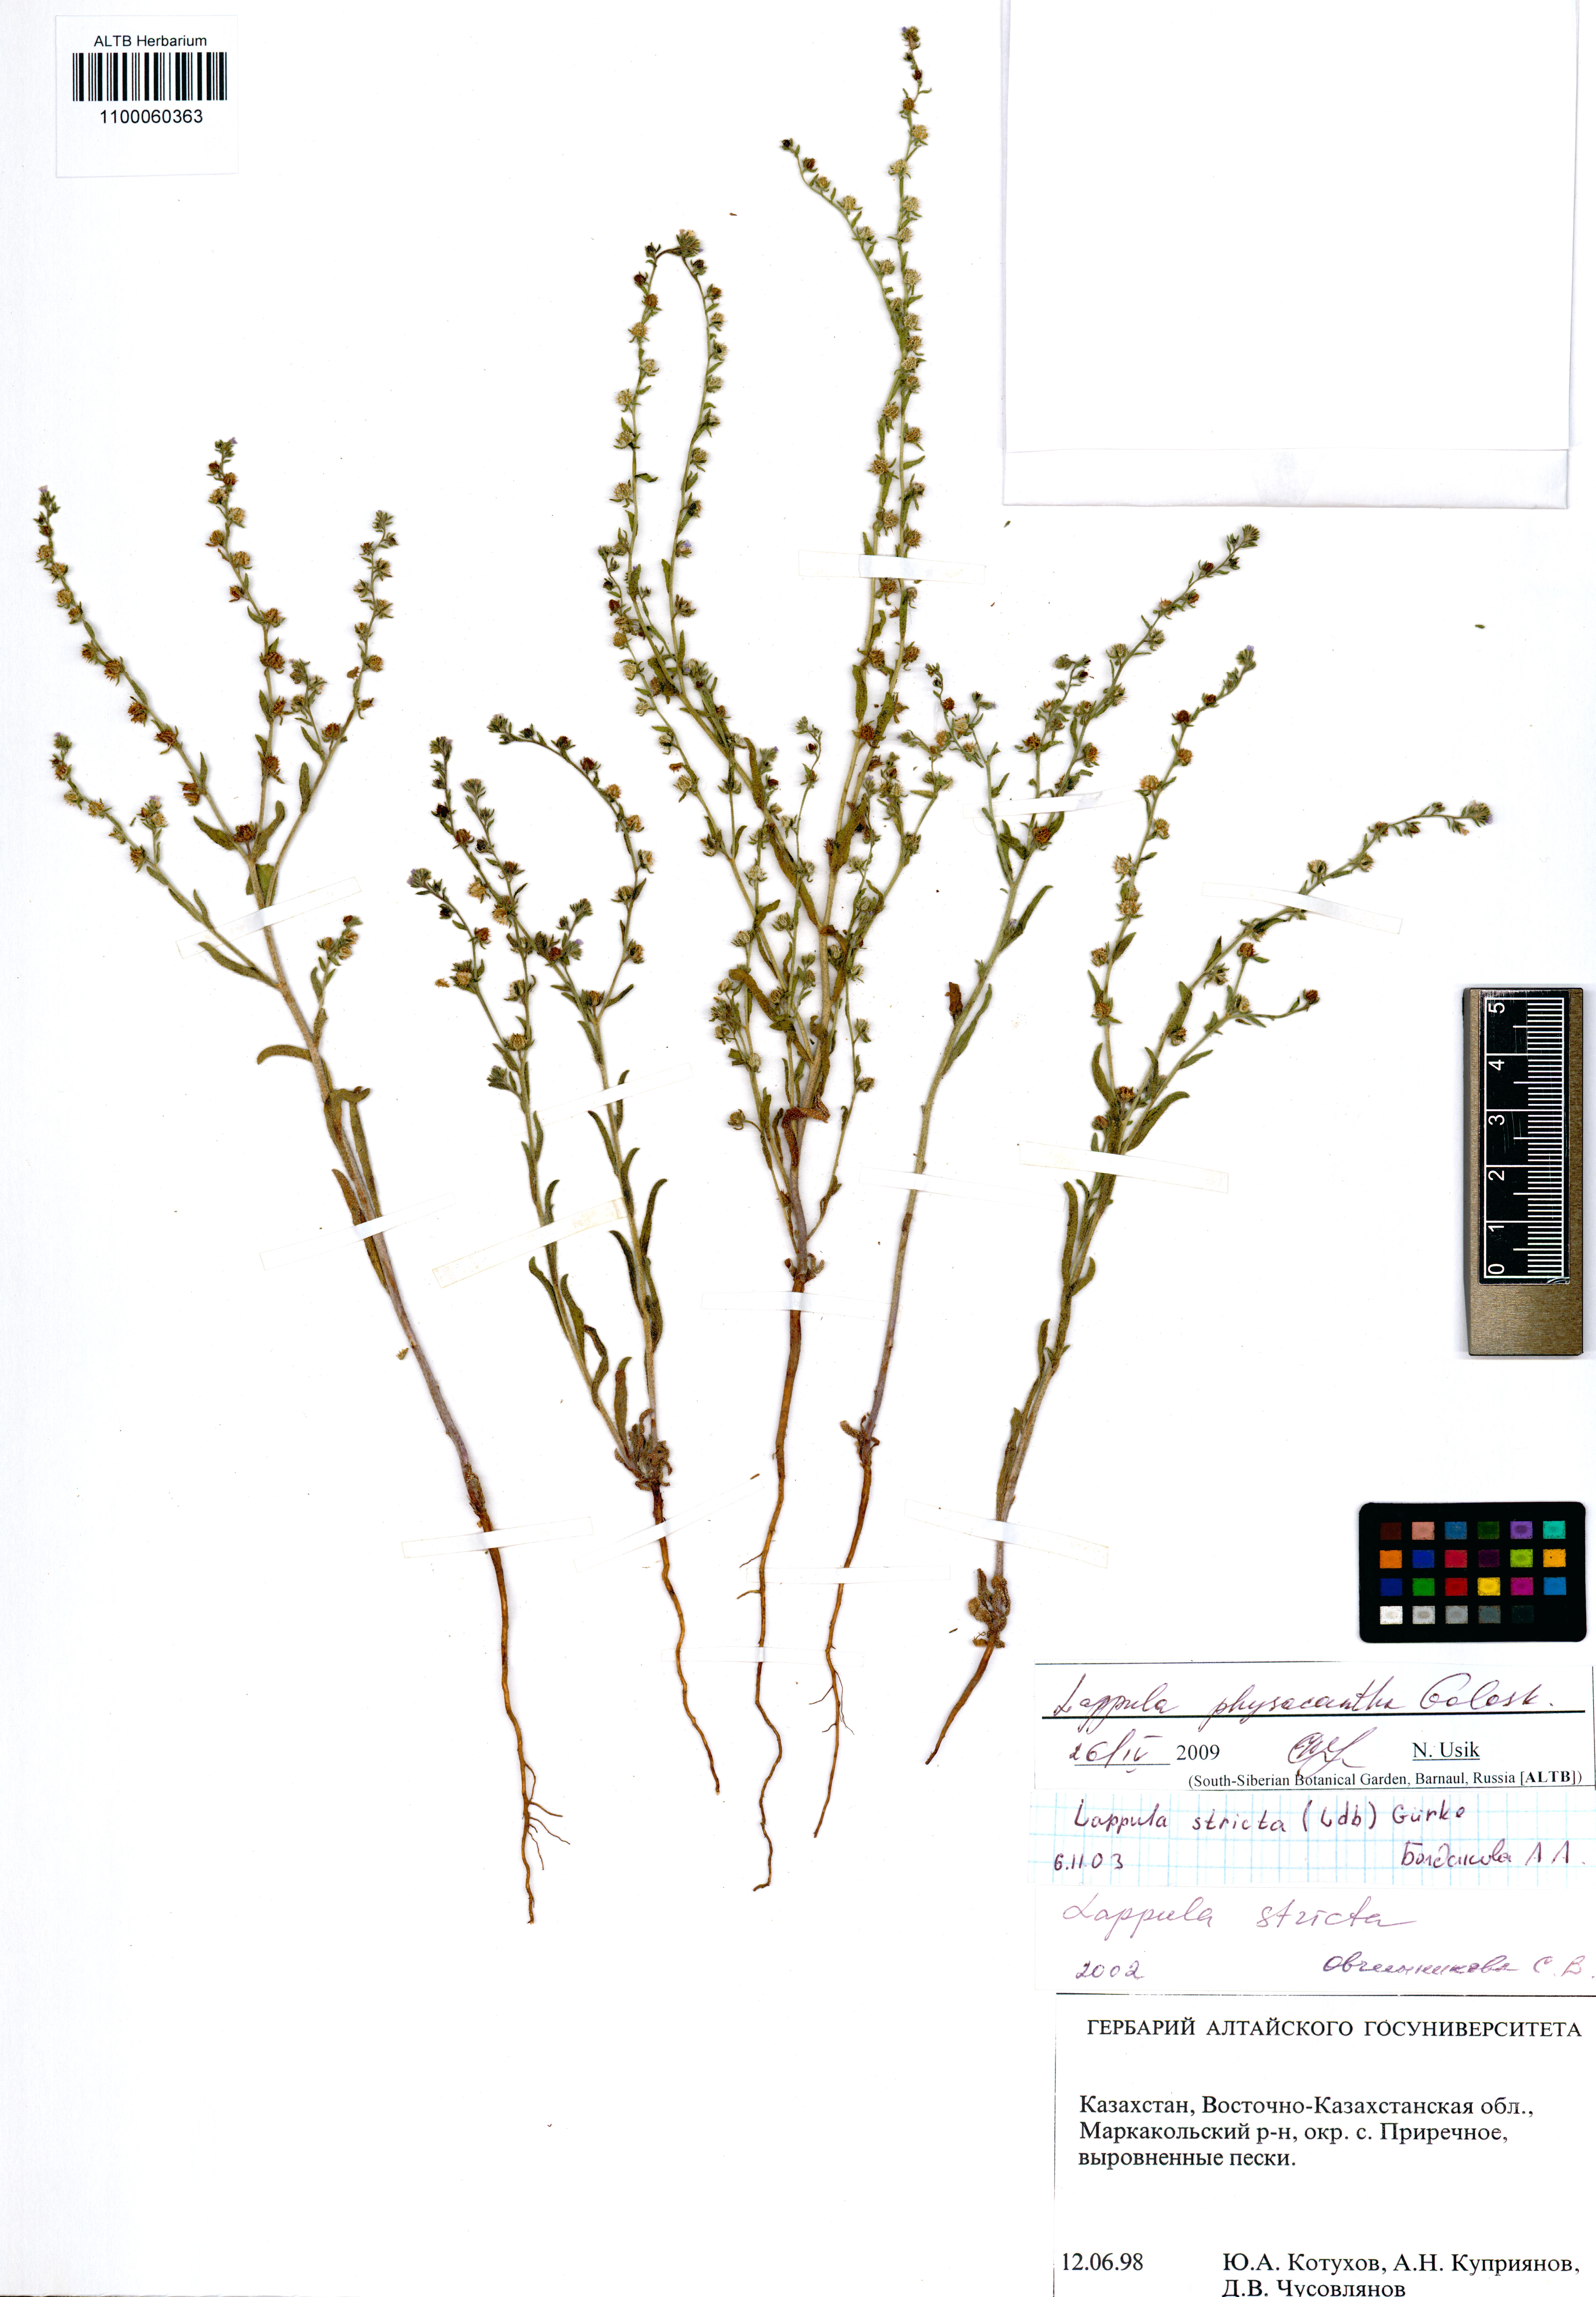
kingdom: Plantae
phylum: Tracheophyta
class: Magnoliopsida
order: Boraginales
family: Boraginaceae
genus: Lappula
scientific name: Lappula physacantha
